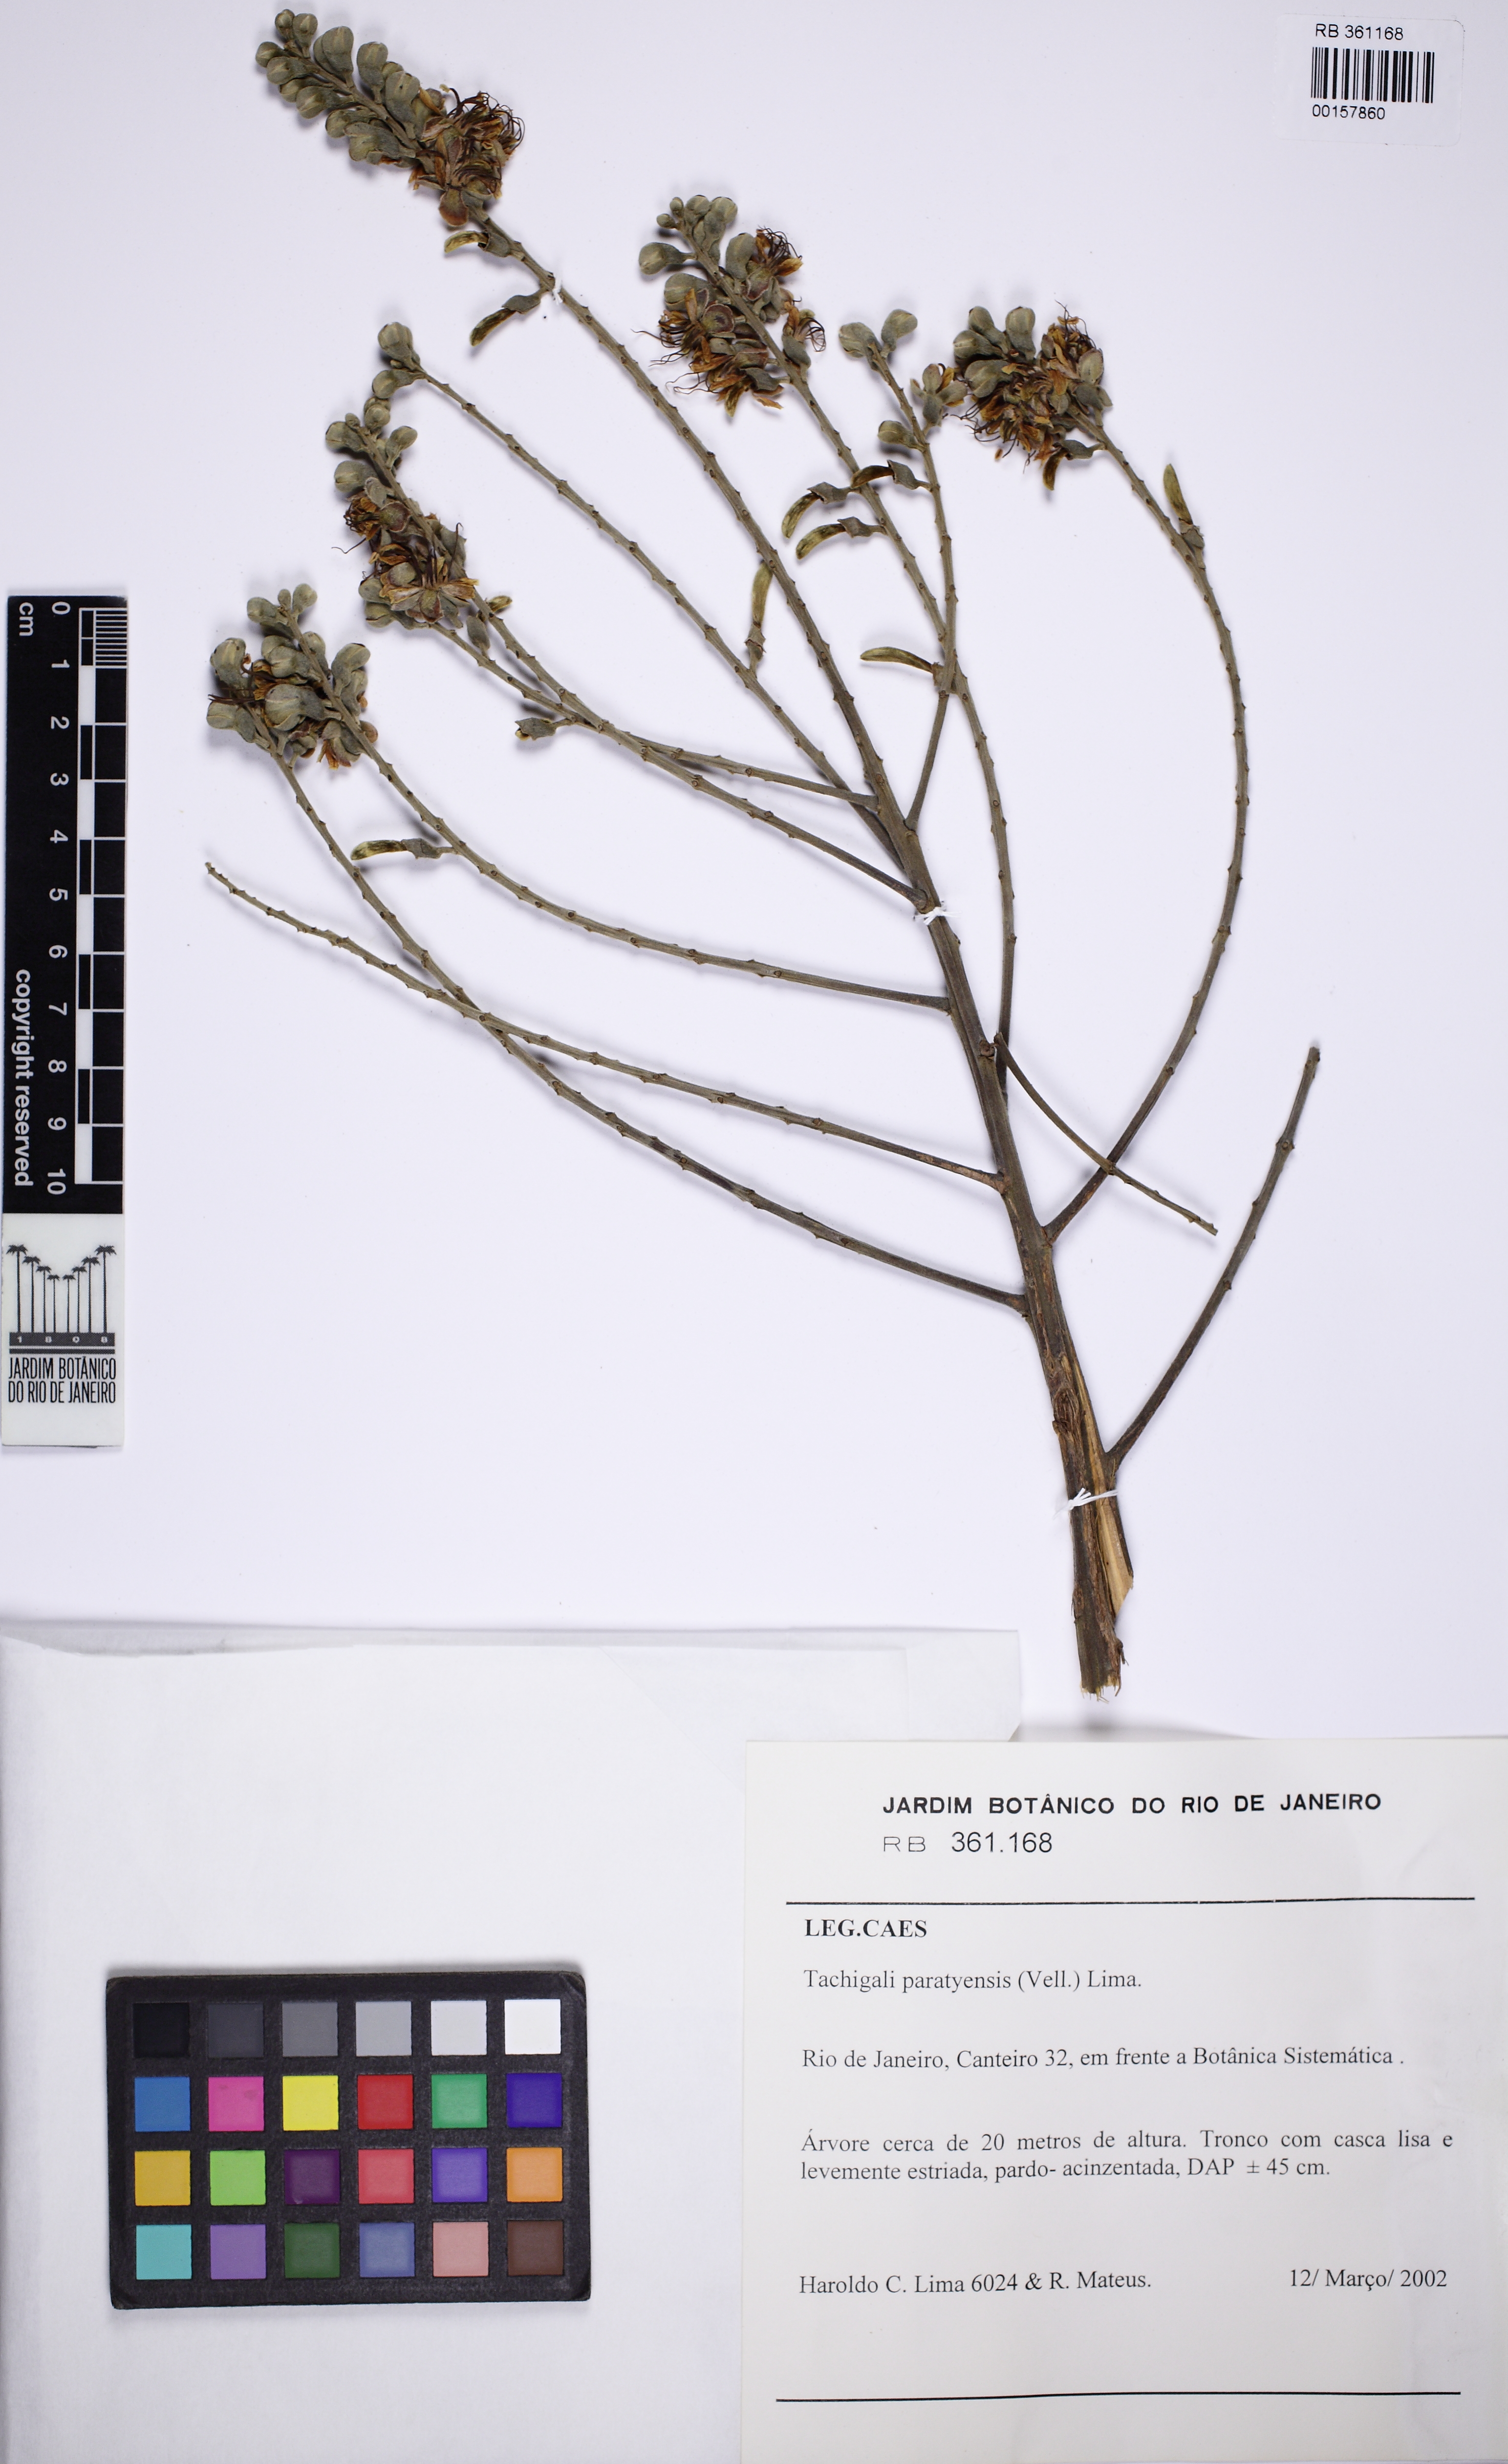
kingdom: Plantae
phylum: Tracheophyta
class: Magnoliopsida
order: Fabales
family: Fabaceae
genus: Tachigali
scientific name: Tachigali paratyensis
